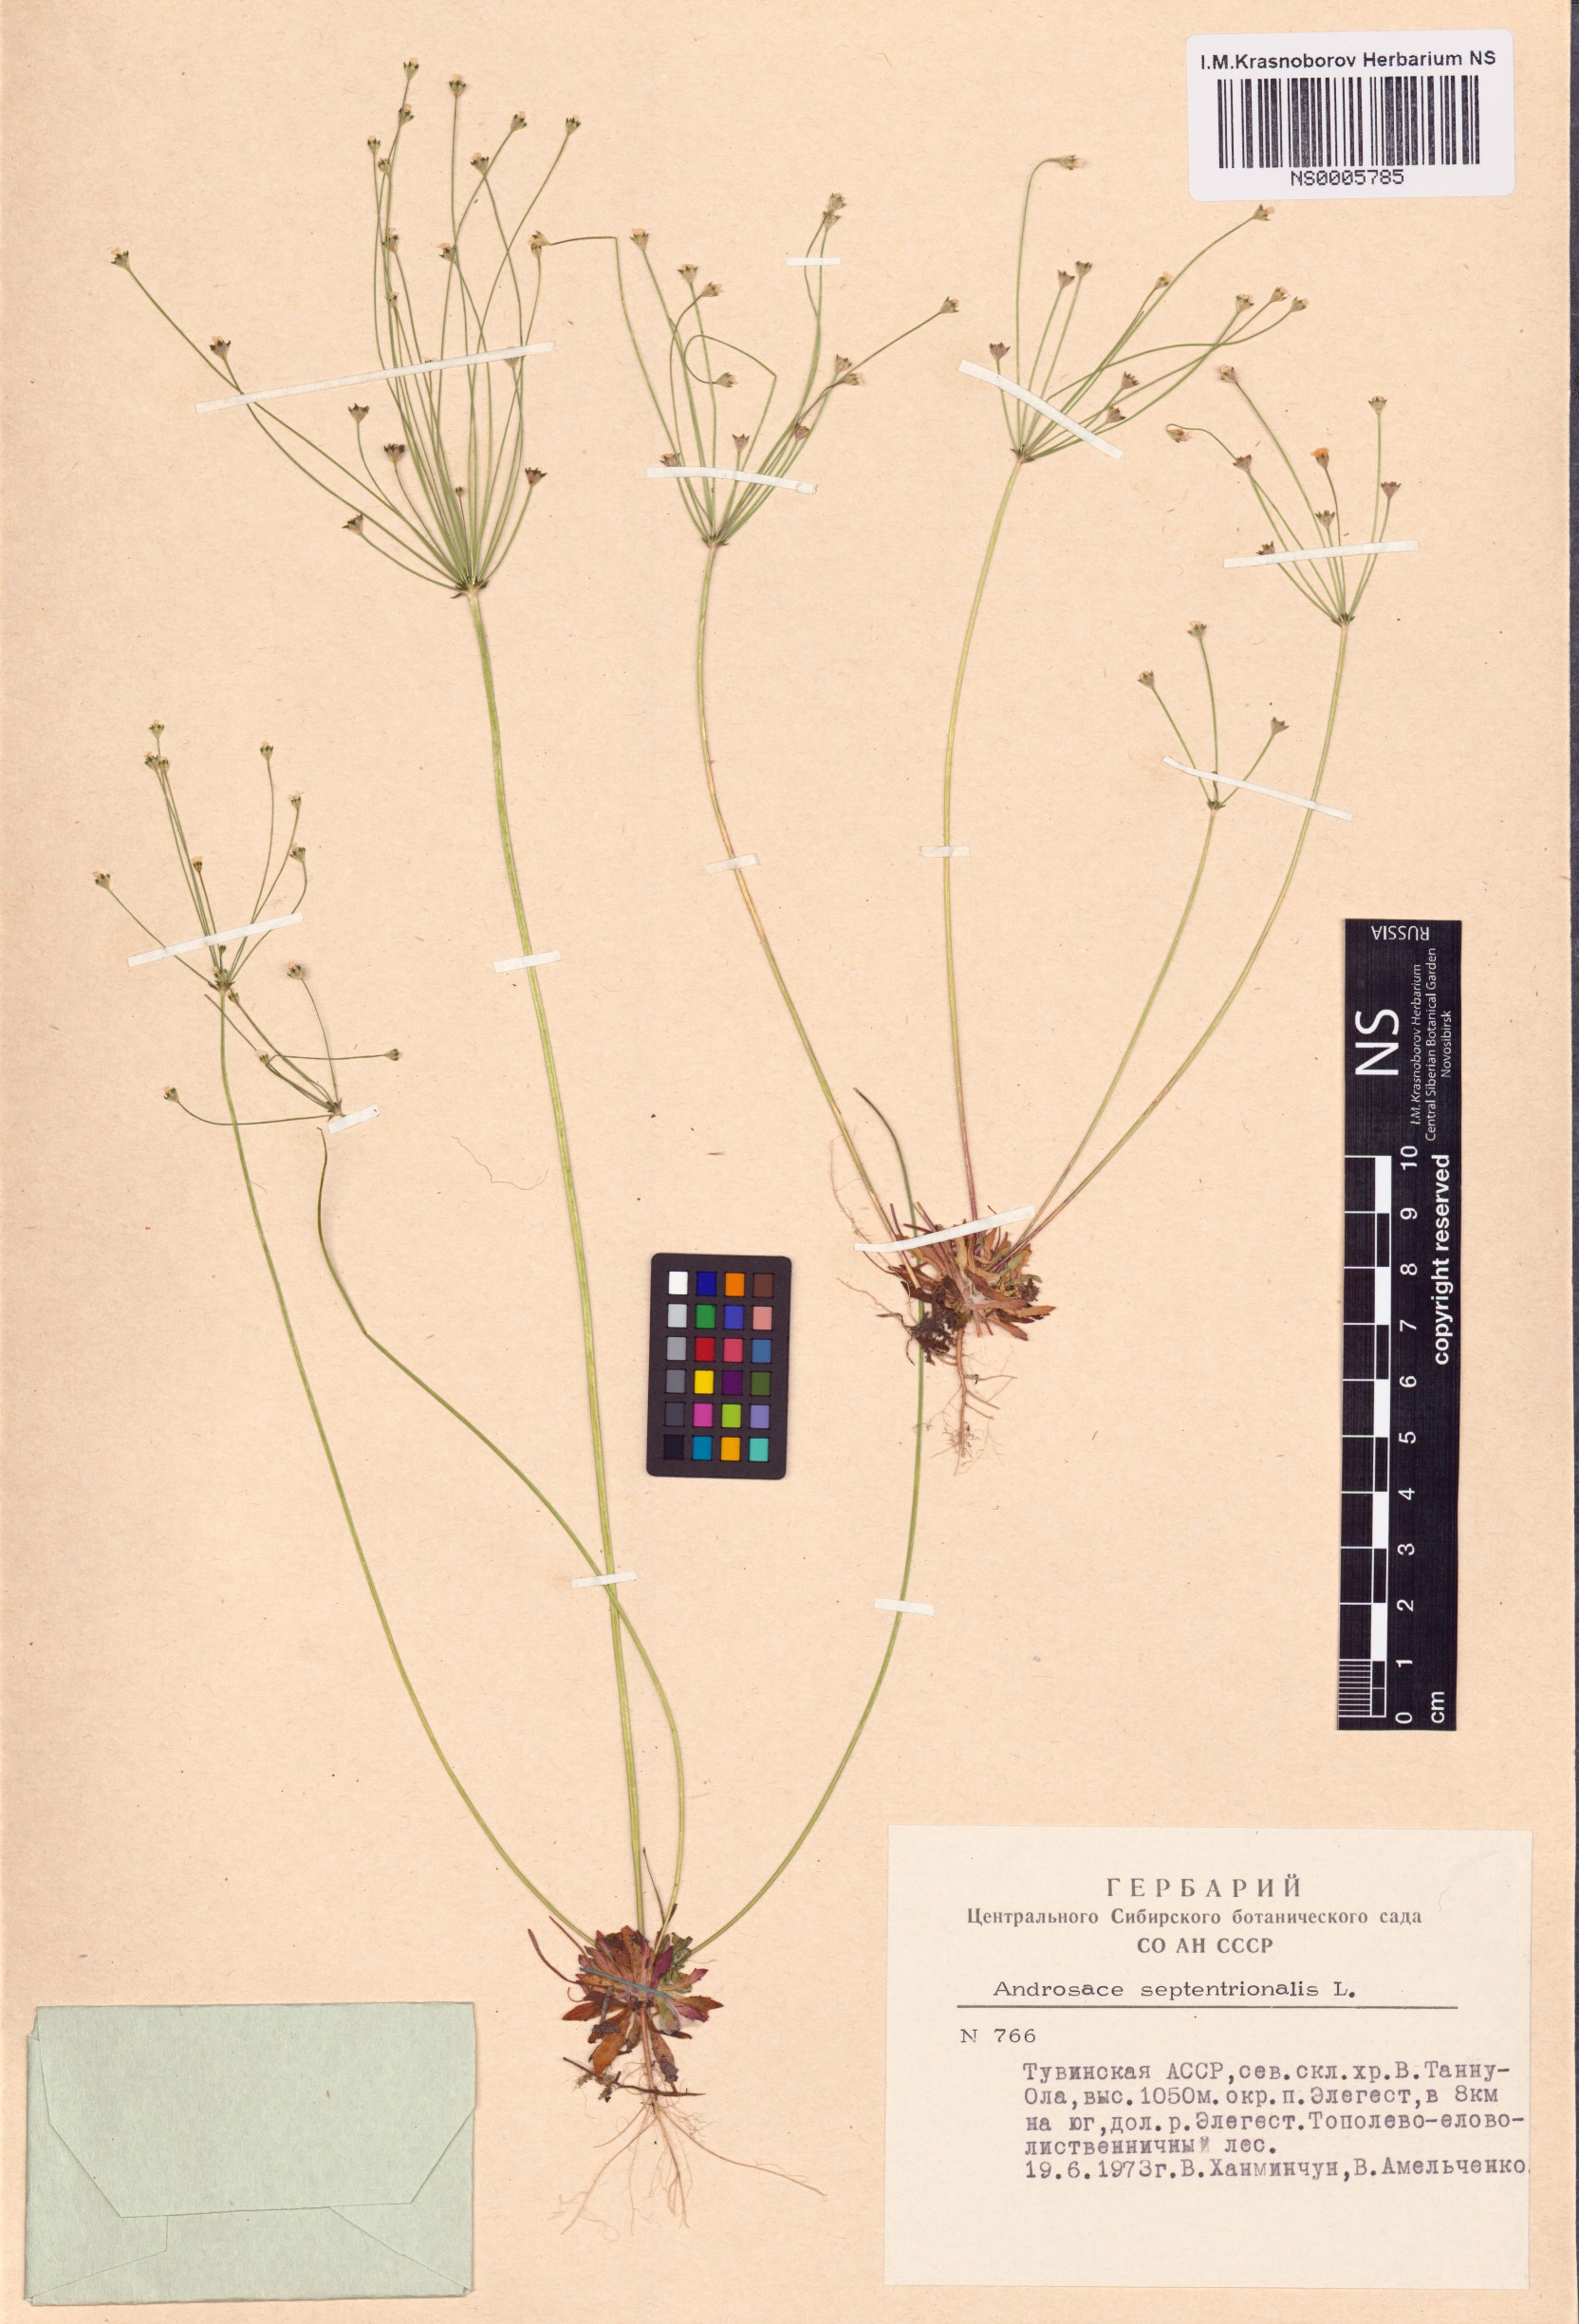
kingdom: Plantae
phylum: Tracheophyta
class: Magnoliopsida
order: Ericales
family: Primulaceae
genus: Androsace
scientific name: Androsace septentrionalis
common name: Hairy northern fairy-candelabra
